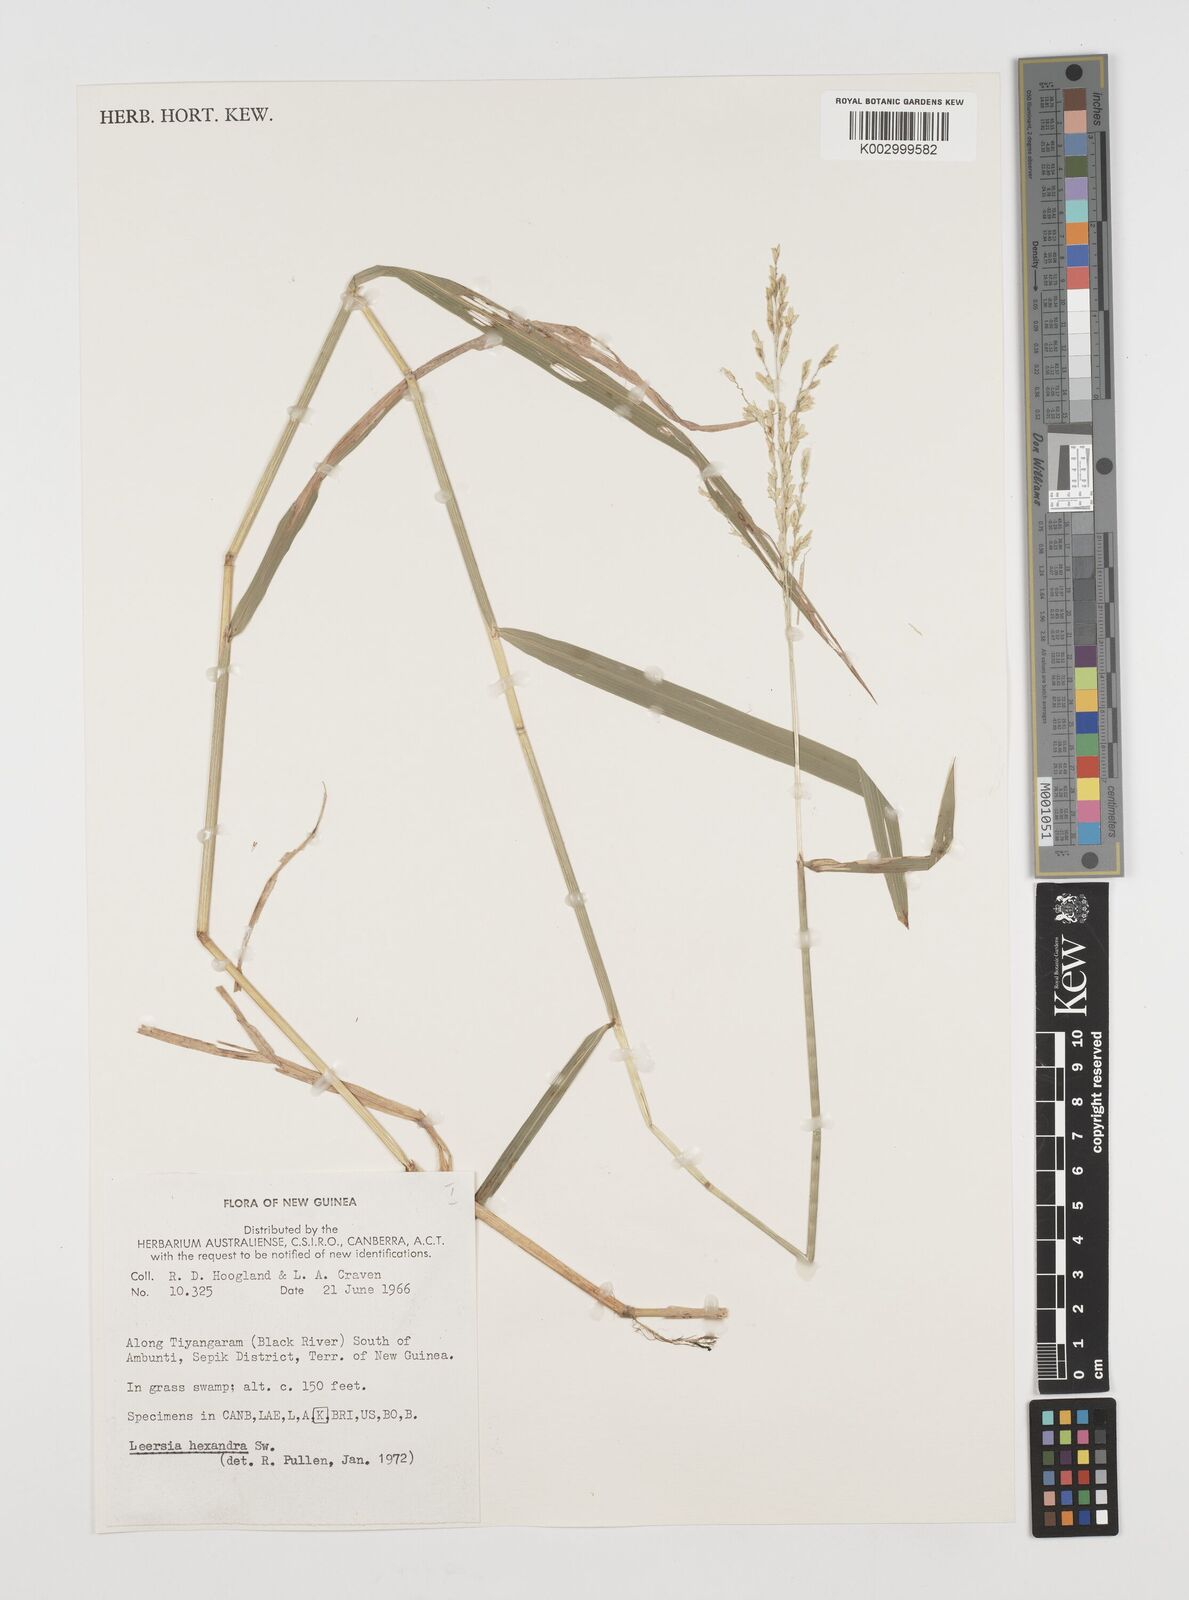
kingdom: Plantae
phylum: Tracheophyta
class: Liliopsida
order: Poales
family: Poaceae
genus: Leersia
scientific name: Leersia hexandra
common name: Southern cut grass
